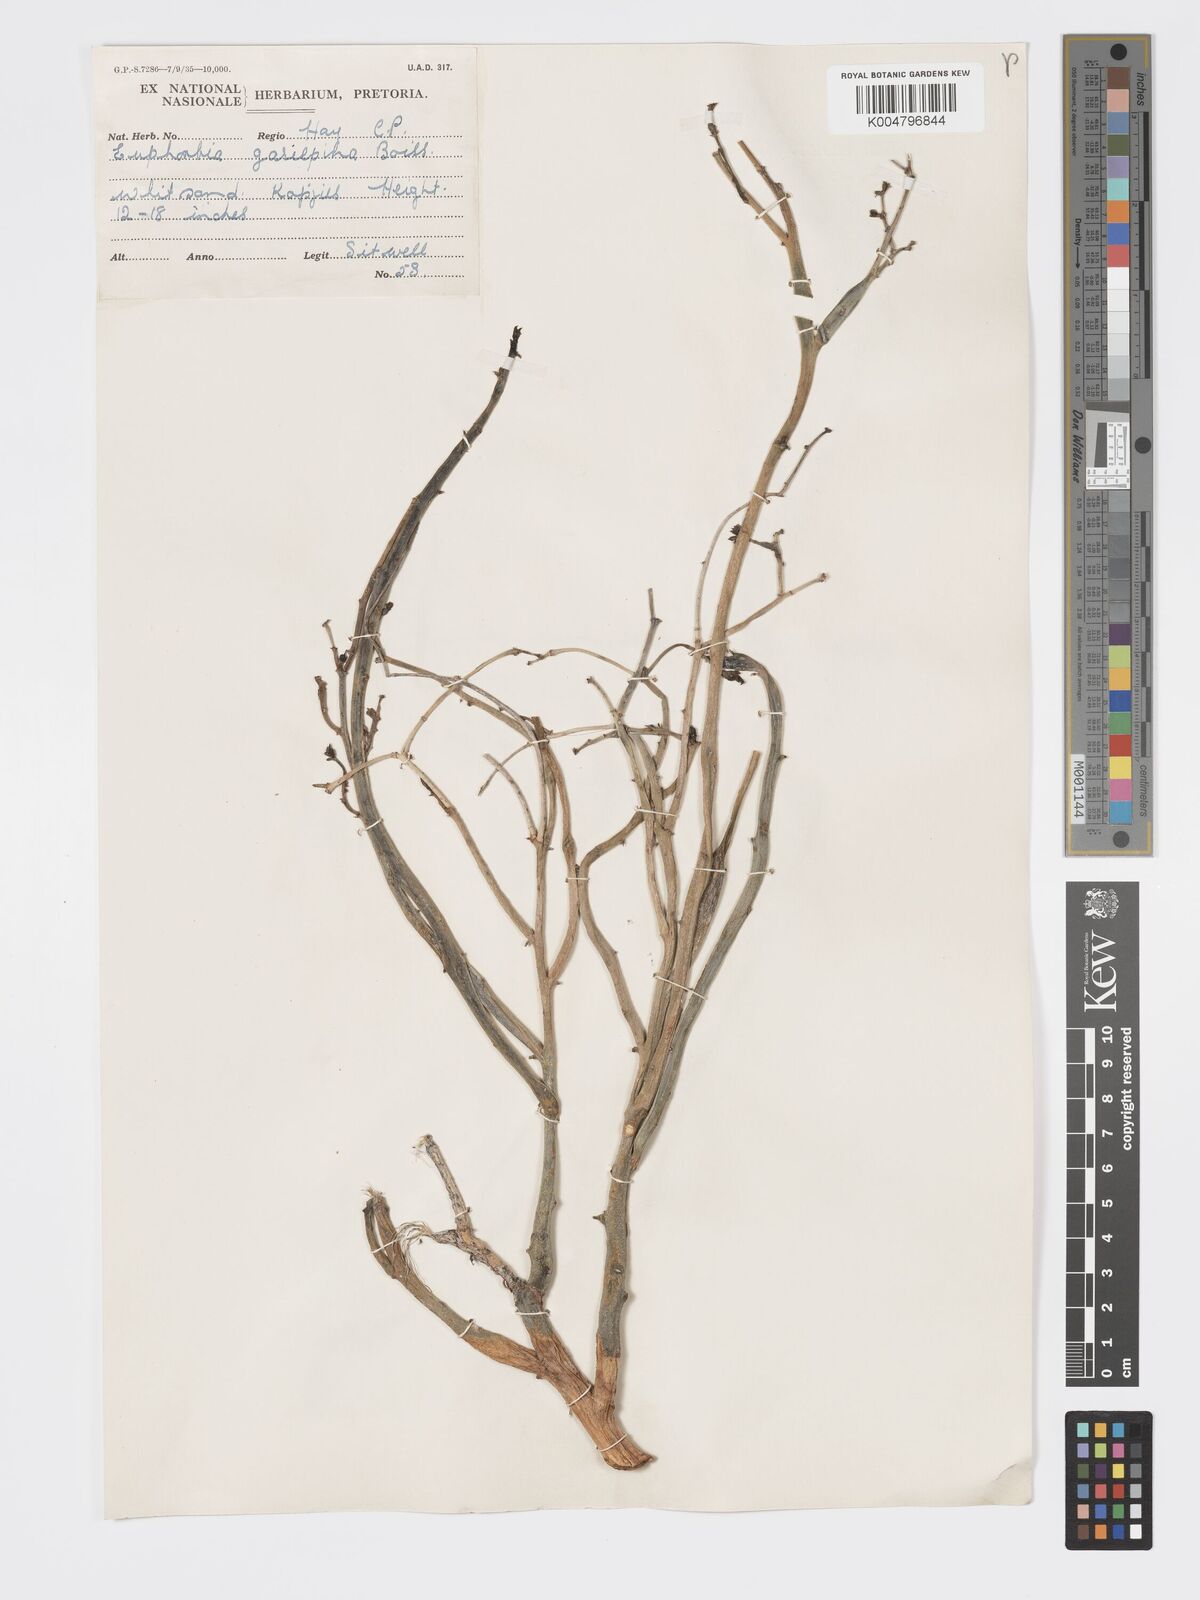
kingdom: Plantae
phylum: Tracheophyta
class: Magnoliopsida
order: Malpighiales
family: Euphorbiaceae
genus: Euphorbia
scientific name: Euphorbia gariepina
